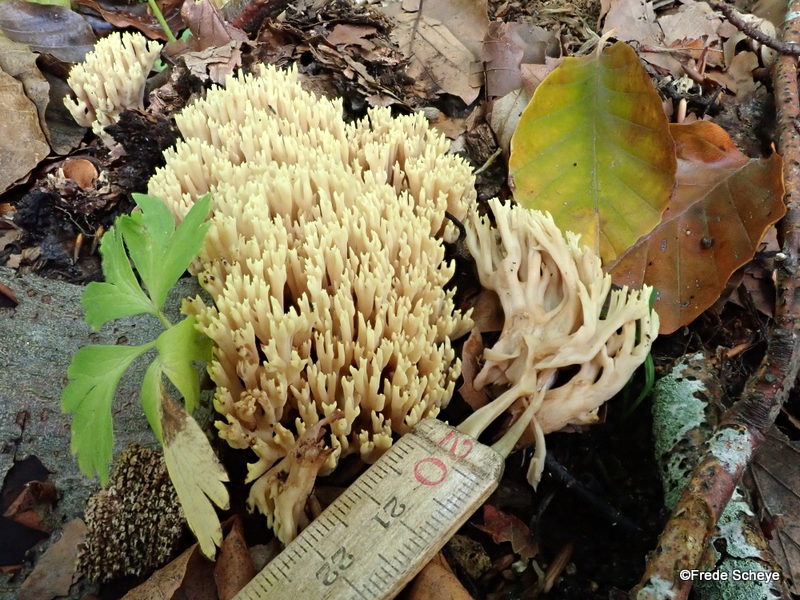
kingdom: Fungi
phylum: Basidiomycota
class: Agaricomycetes
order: Gomphales
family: Gomphaceae
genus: Ramaria
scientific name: Ramaria stricta
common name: rank koralsvamp
